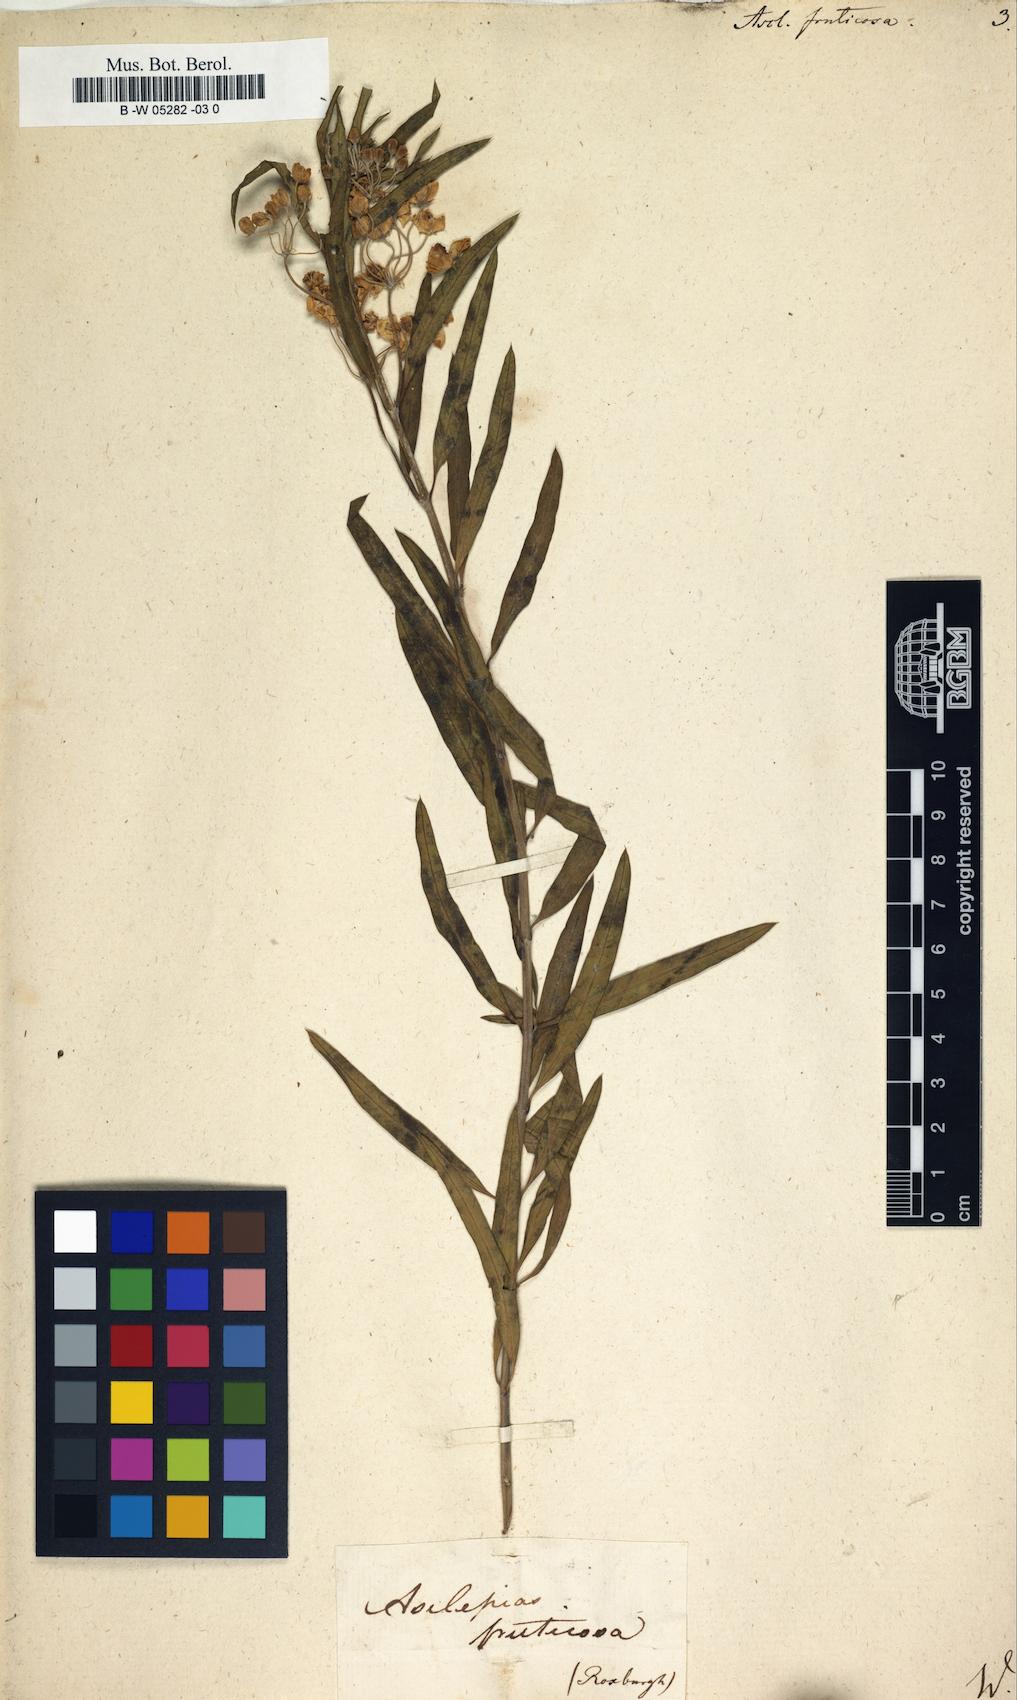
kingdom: Plantae
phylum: Tracheophyta
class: Magnoliopsida
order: Gentianales
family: Apocynaceae
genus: Gomphocarpus
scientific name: Gomphocarpus fruticosus
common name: Milkweed
